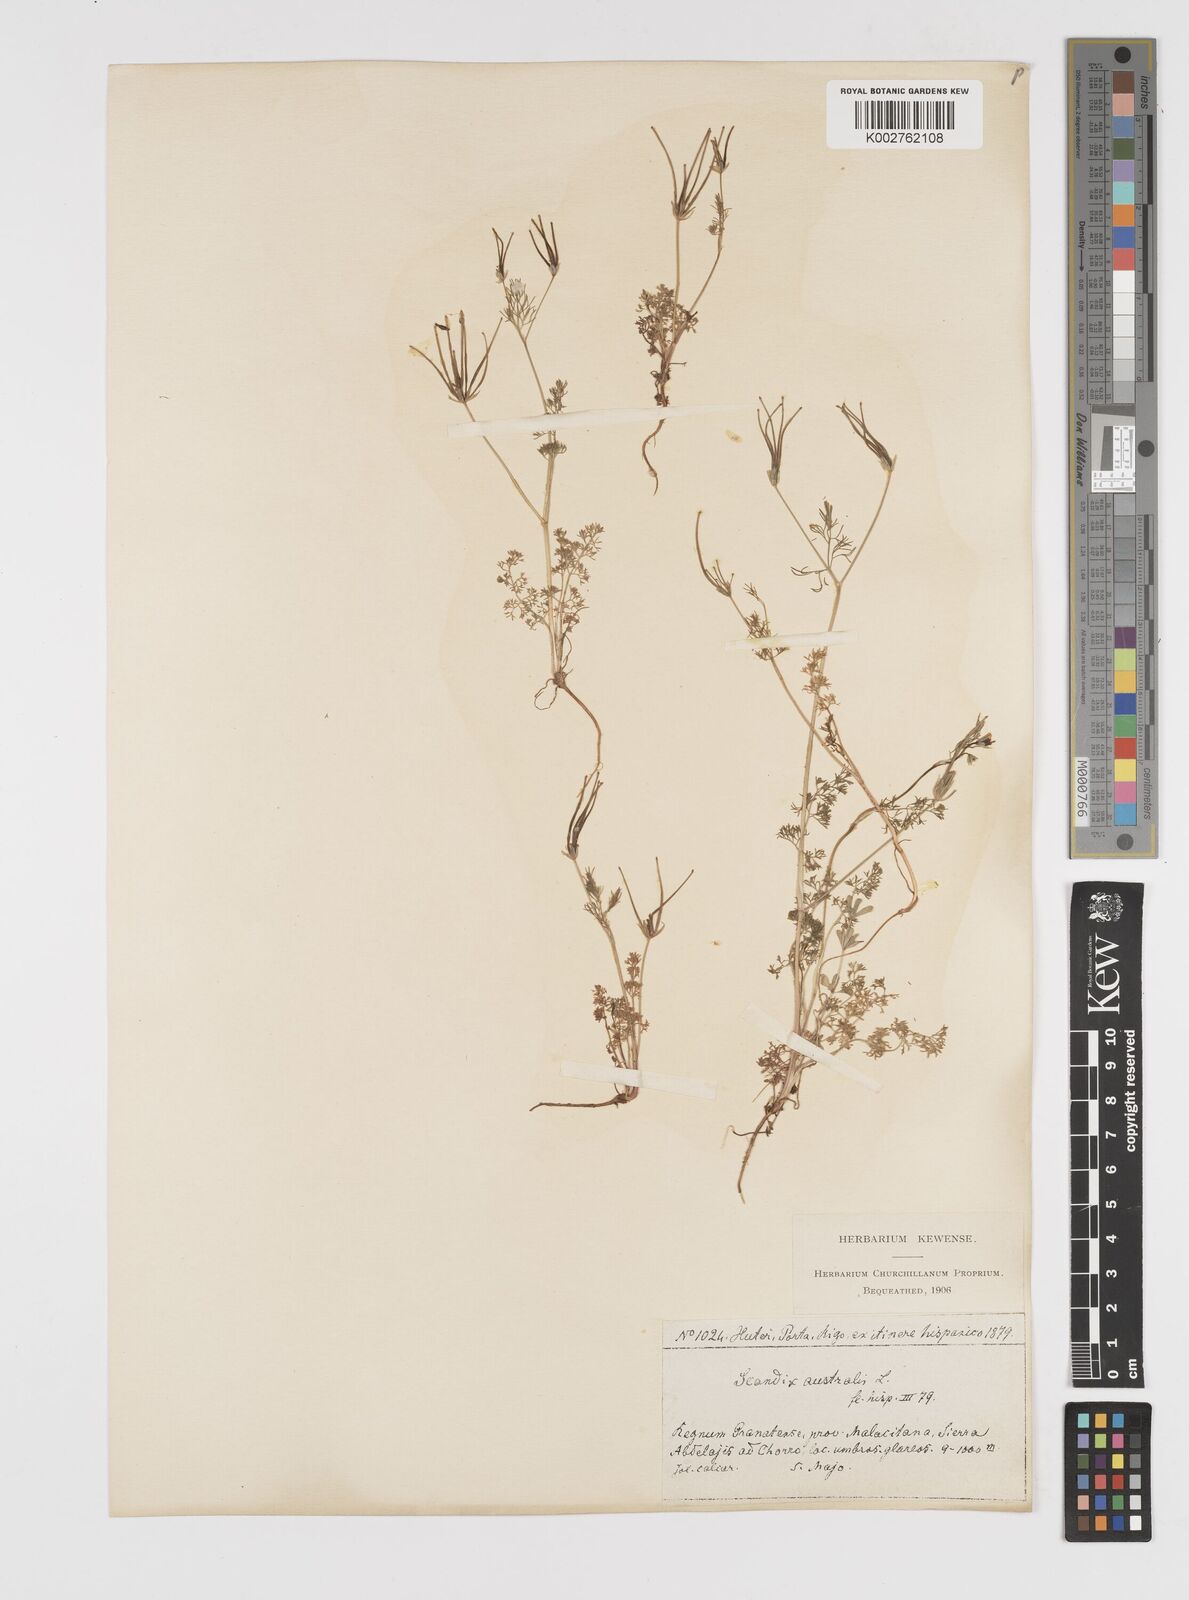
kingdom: Plantae
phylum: Tracheophyta
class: Magnoliopsida
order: Apiales
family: Apiaceae
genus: Scandix
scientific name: Scandix australis
